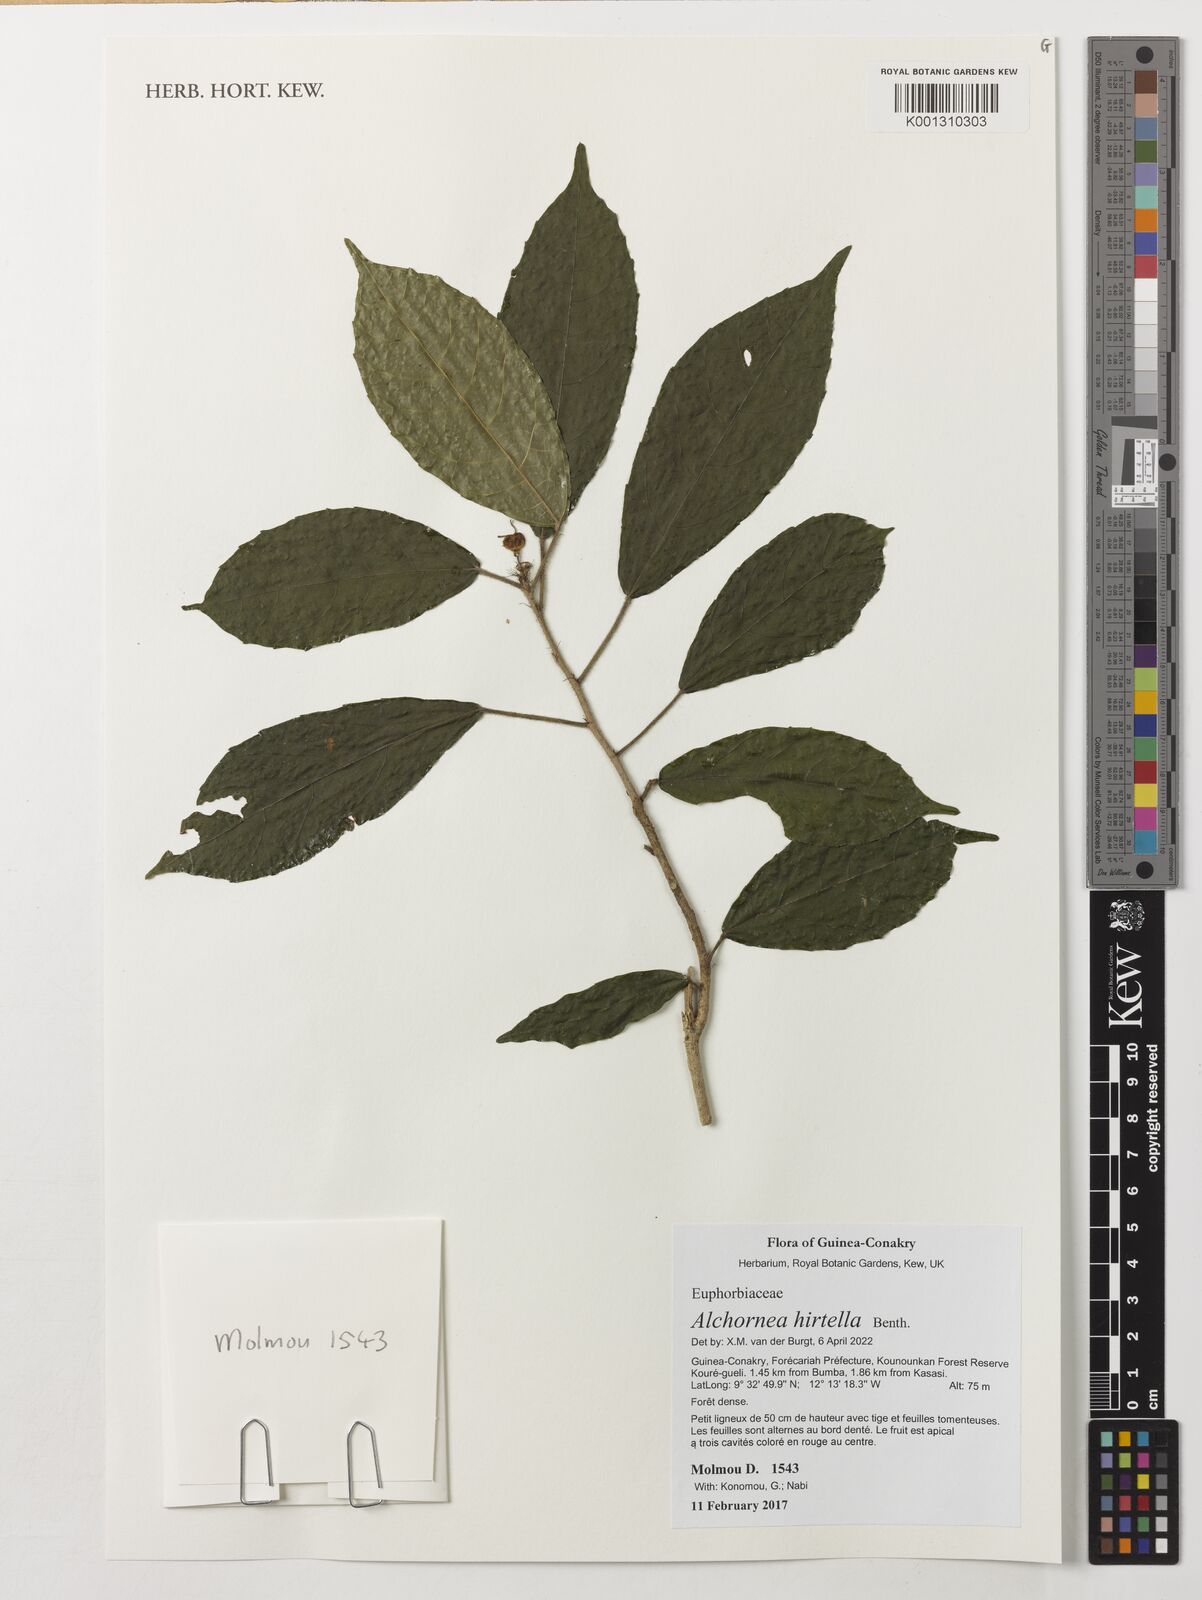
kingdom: Plantae
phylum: Tracheophyta
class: Magnoliopsida
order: Malpighiales
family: Euphorbiaceae
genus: Alchornea
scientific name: Alchornea hirtella
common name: Forest bead-string
